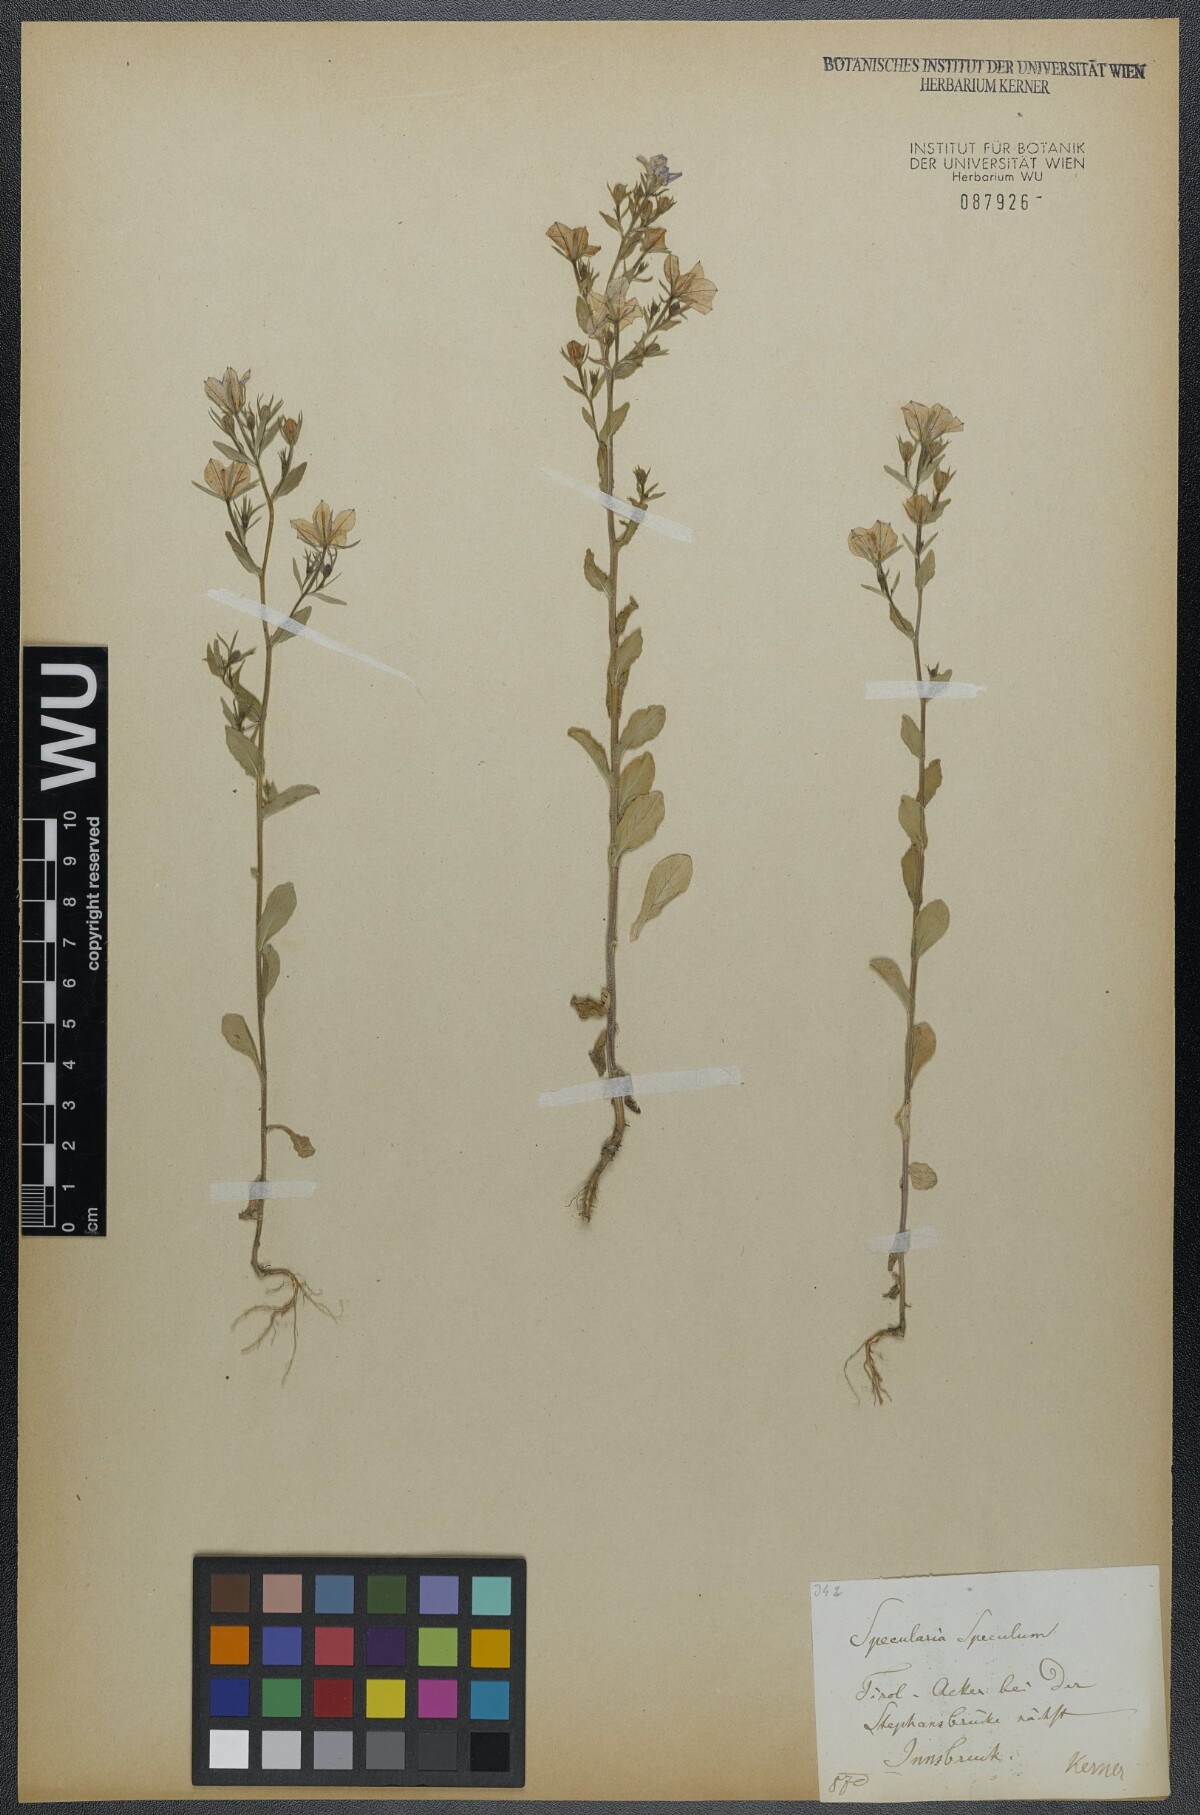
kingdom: Plantae
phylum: Tracheophyta
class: Magnoliopsida
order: Asterales
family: Campanulaceae
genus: Legousia
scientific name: Legousia speculum-veneris
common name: Large venus's-looking-glass
